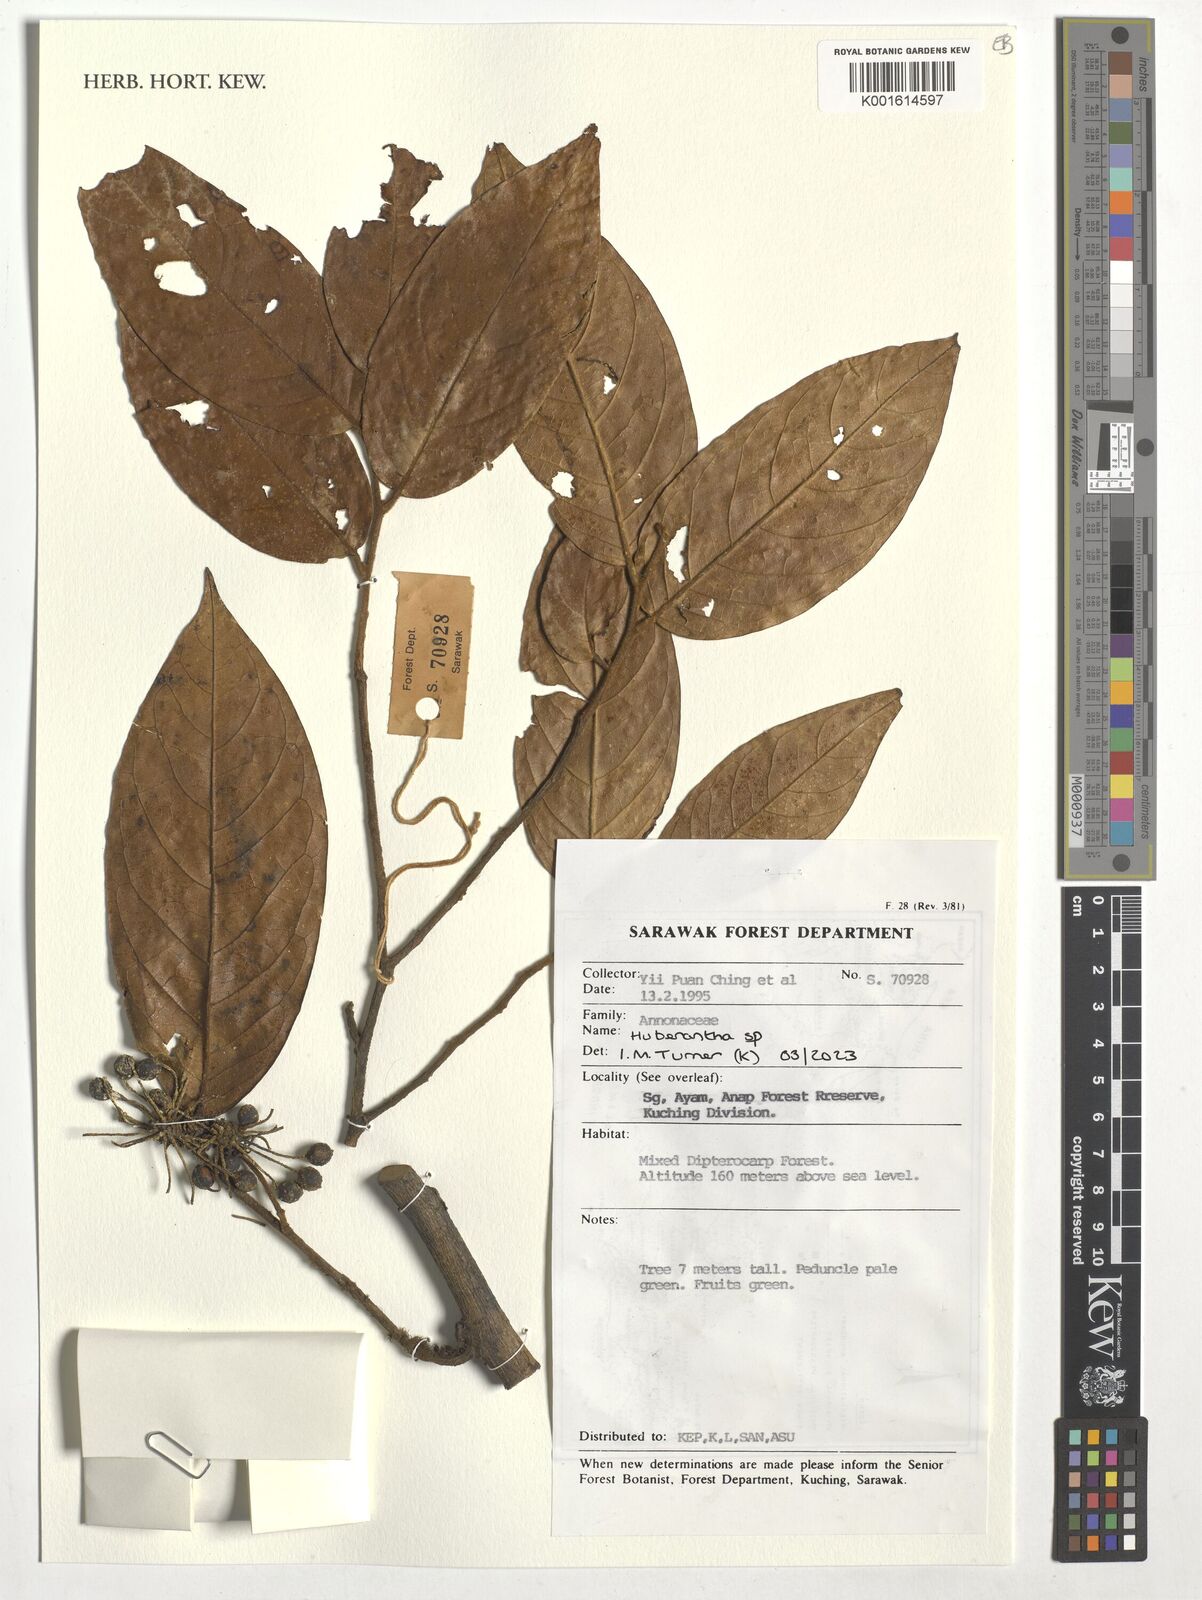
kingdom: Plantae
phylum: Tracheophyta
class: Magnoliopsida
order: Magnoliales
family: Annonaceae
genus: Huberantha
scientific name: Huberantha
